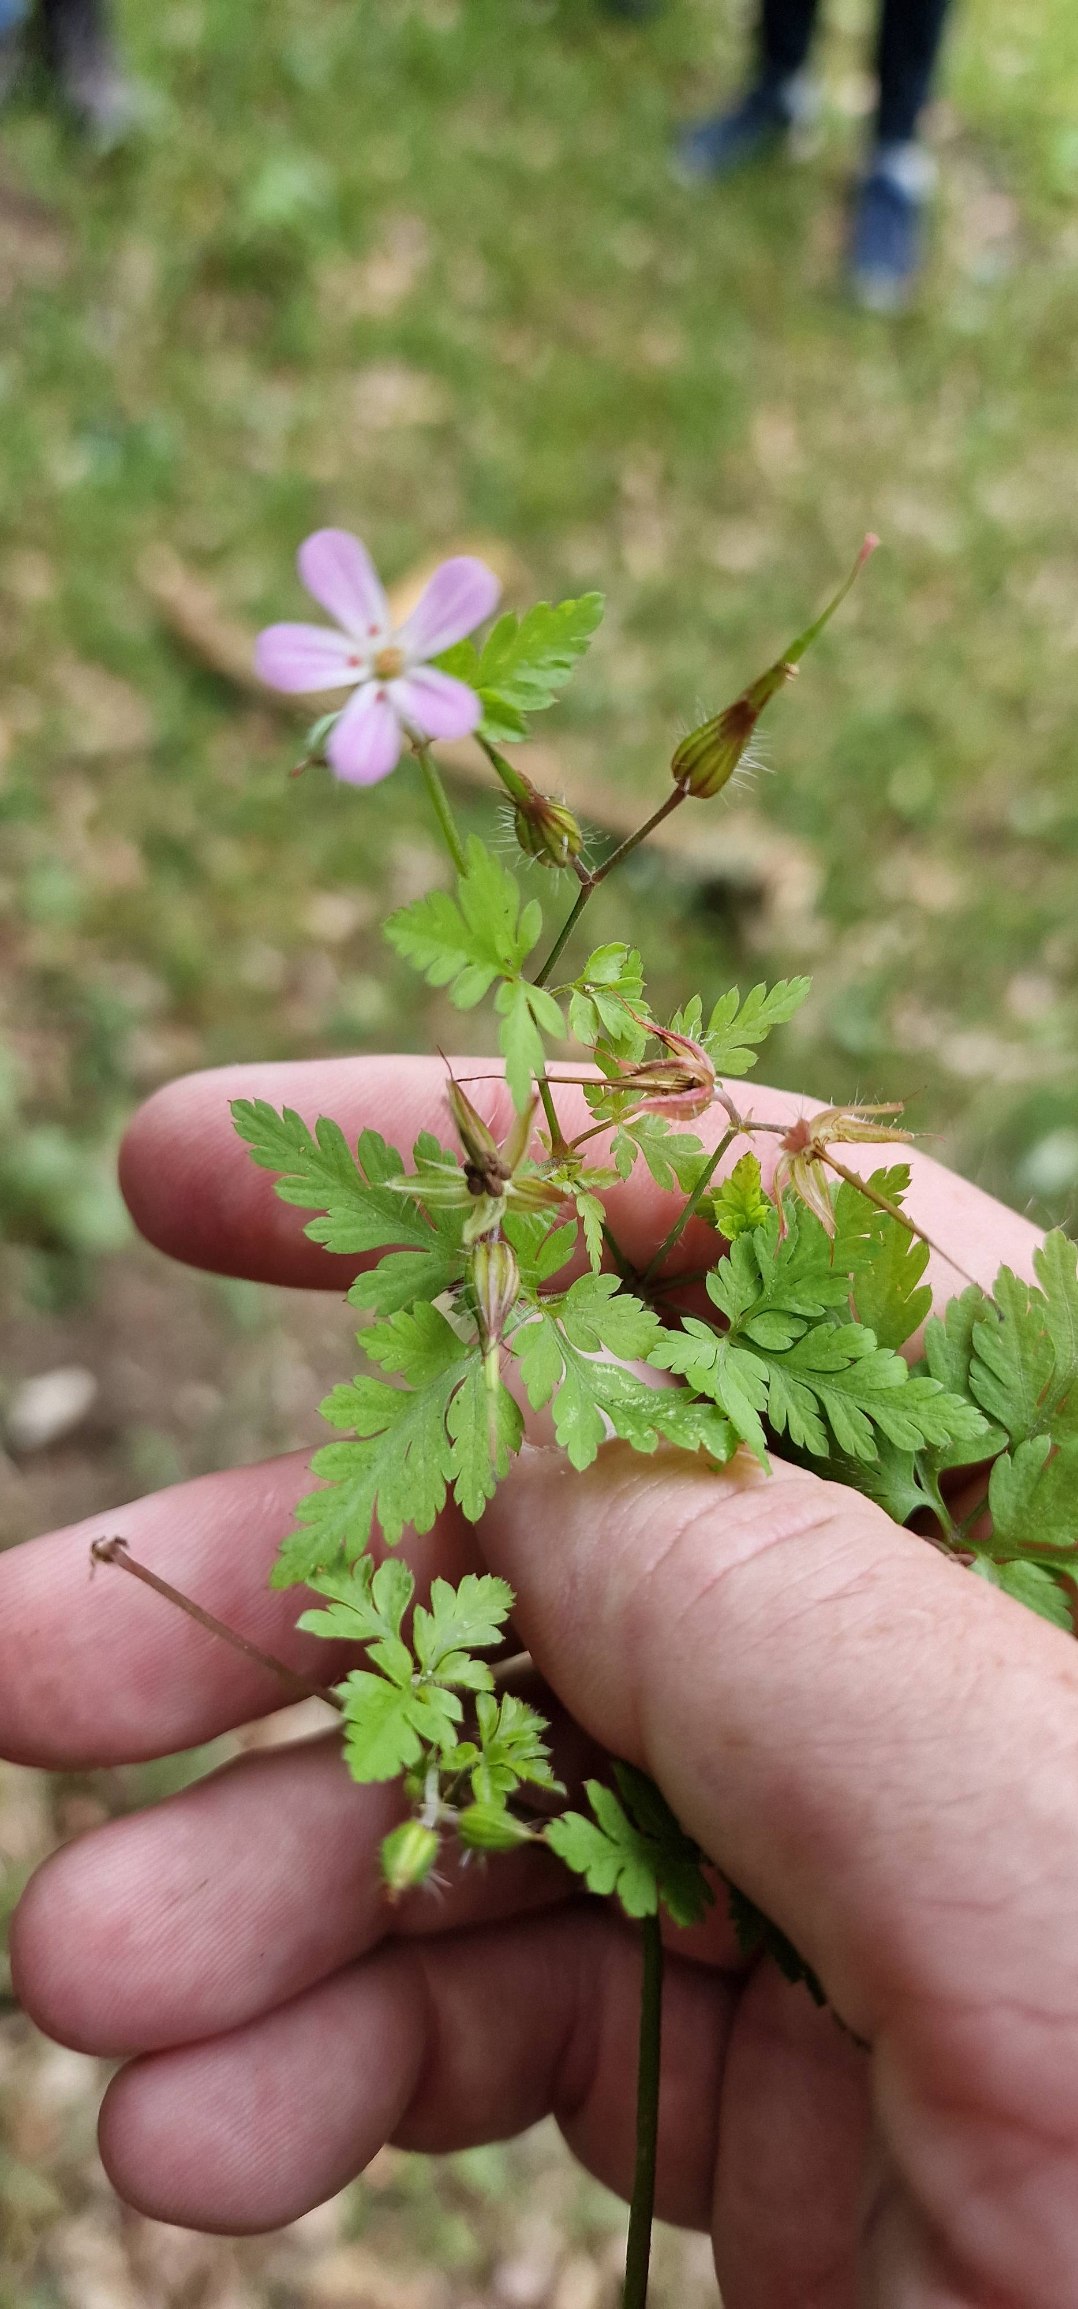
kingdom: Plantae
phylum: Tracheophyta
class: Magnoliopsida
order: Geraniales
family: Geraniaceae
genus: Geranium
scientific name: Geranium robertianum
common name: Stinkende storkenæb
